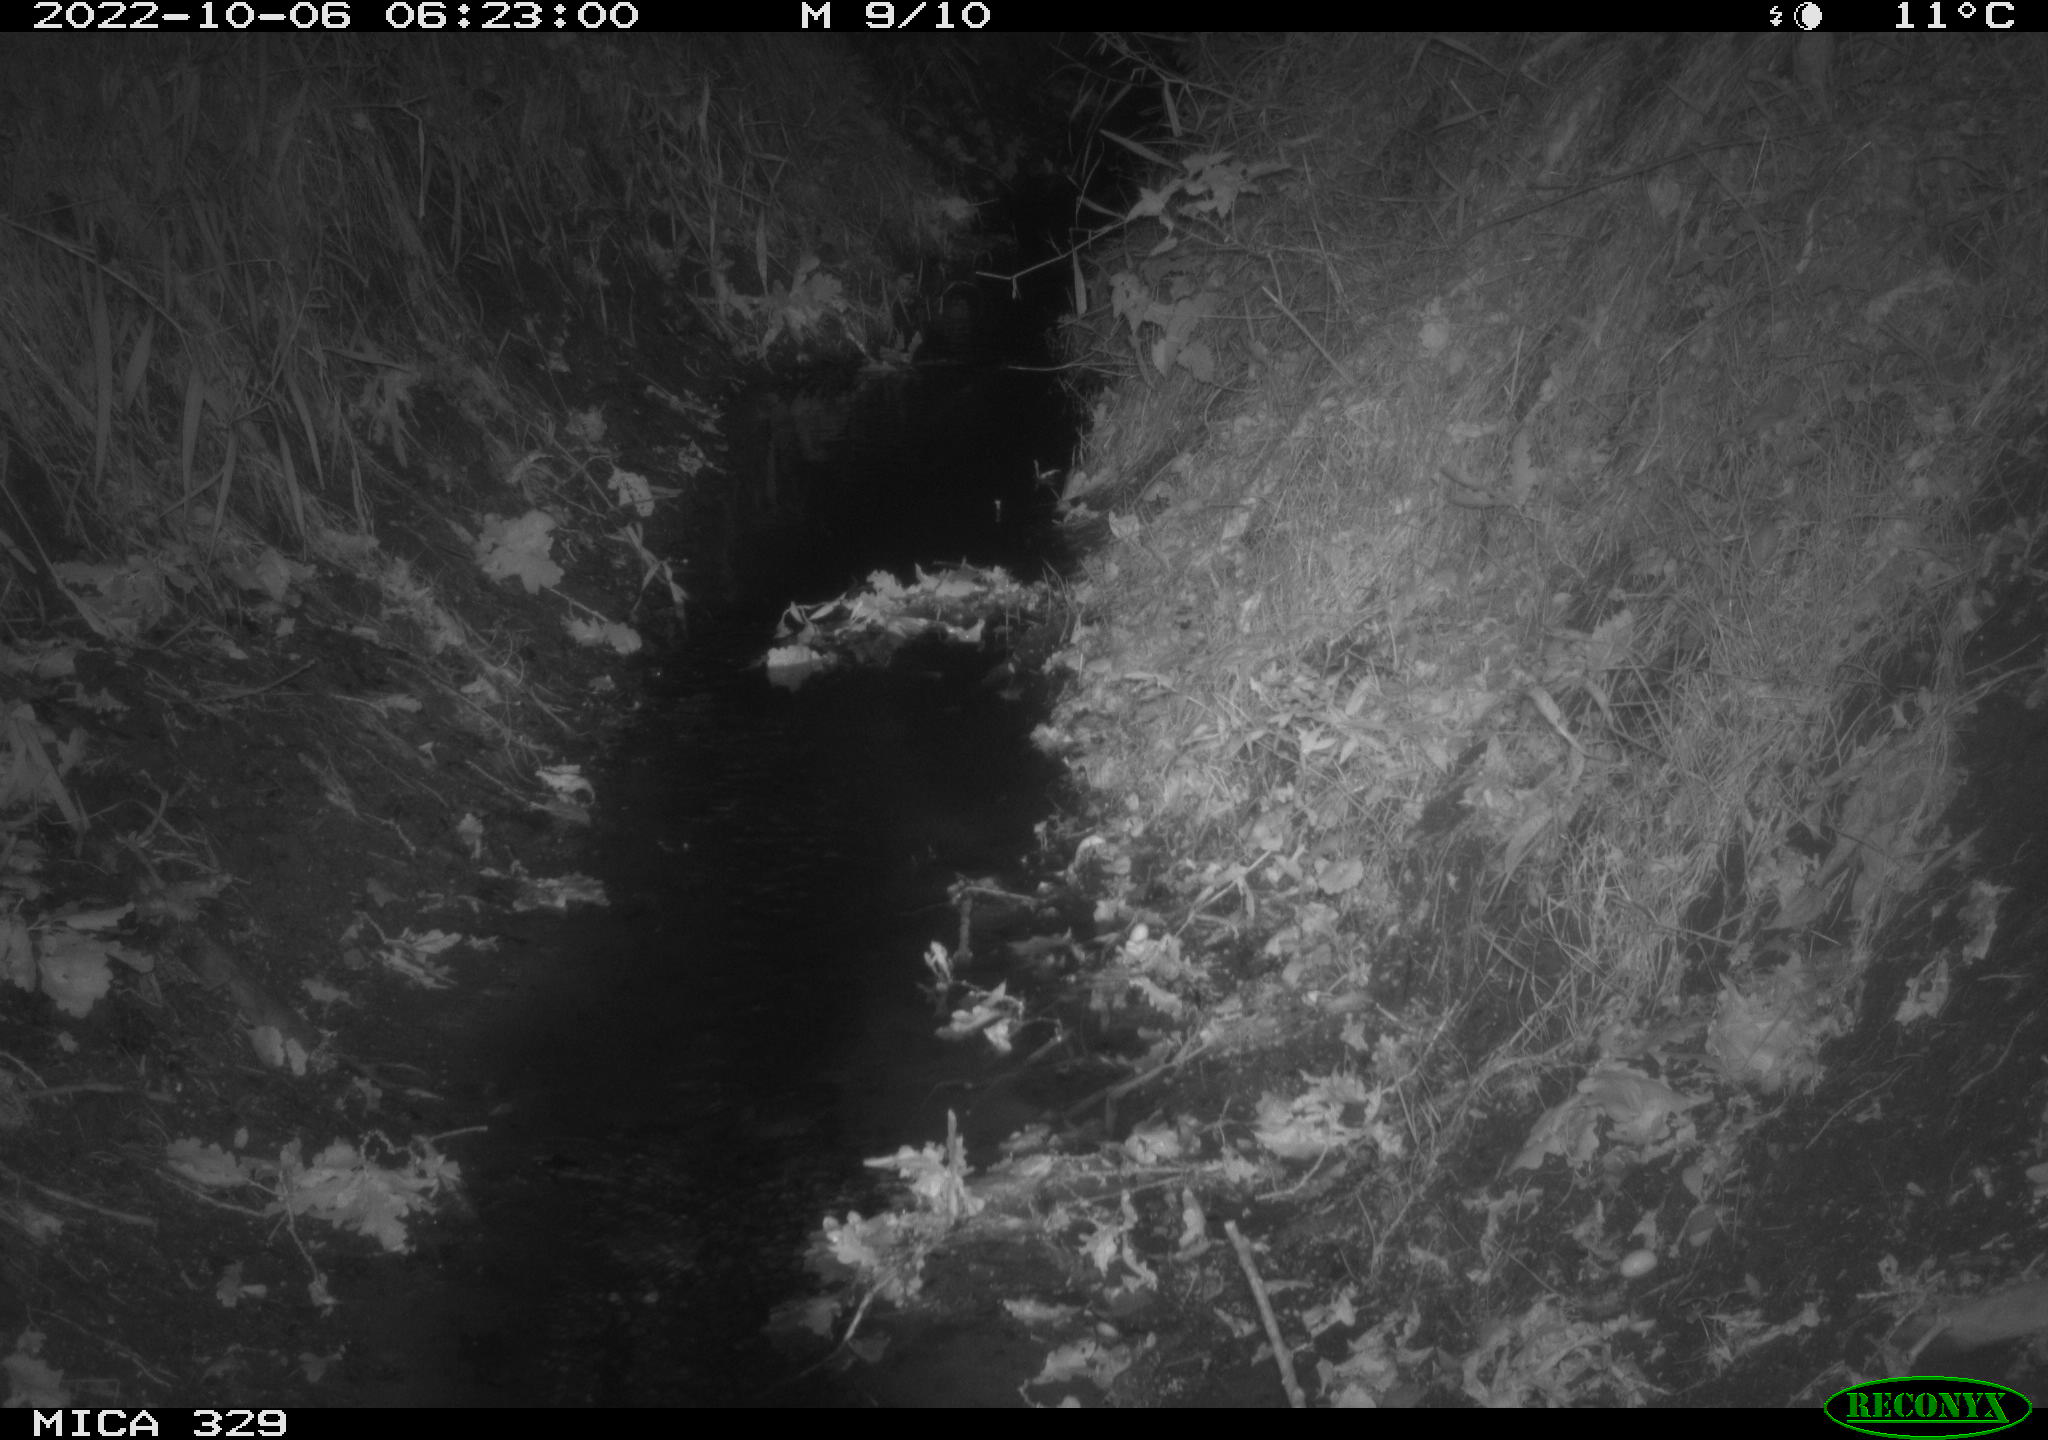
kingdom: Animalia
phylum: Chordata
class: Mammalia
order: Rodentia
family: Muridae
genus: Rattus
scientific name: Rattus norvegicus
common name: Brown rat
